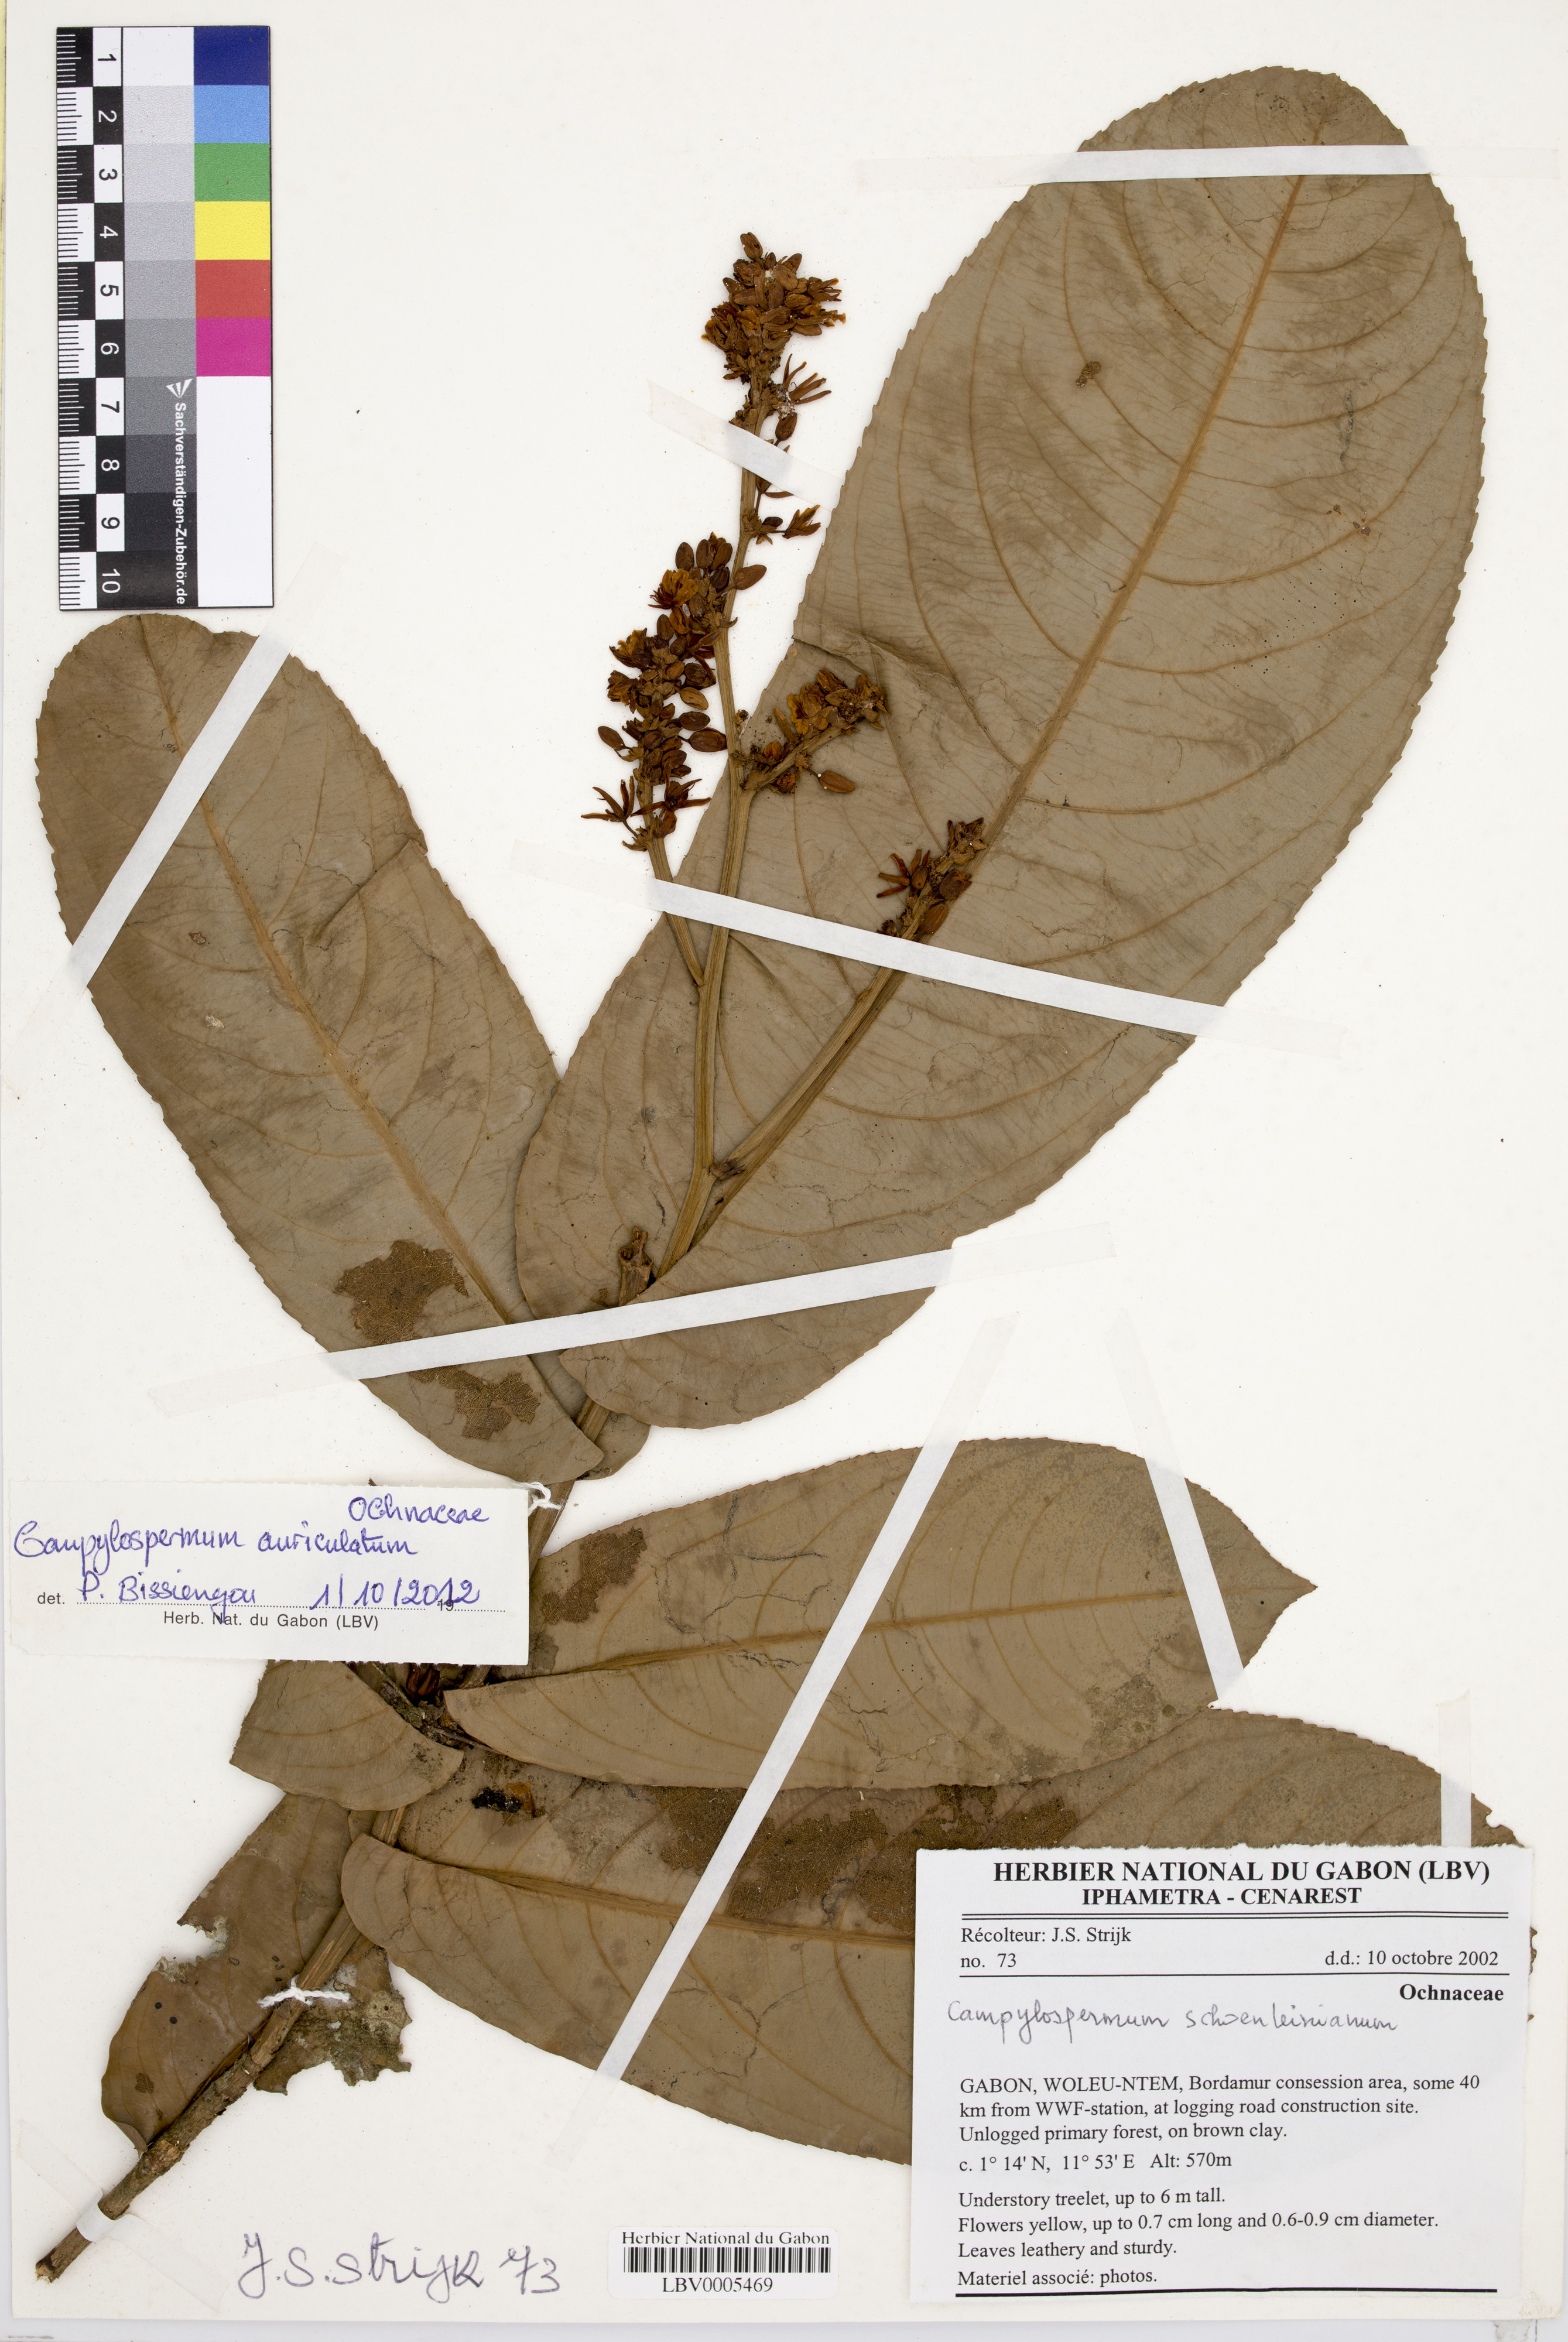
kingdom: Plantae
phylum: Tracheophyta
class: Magnoliopsida
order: Malpighiales
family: Ochnaceae
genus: Campylospermum
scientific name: Campylospermum auriculatum
